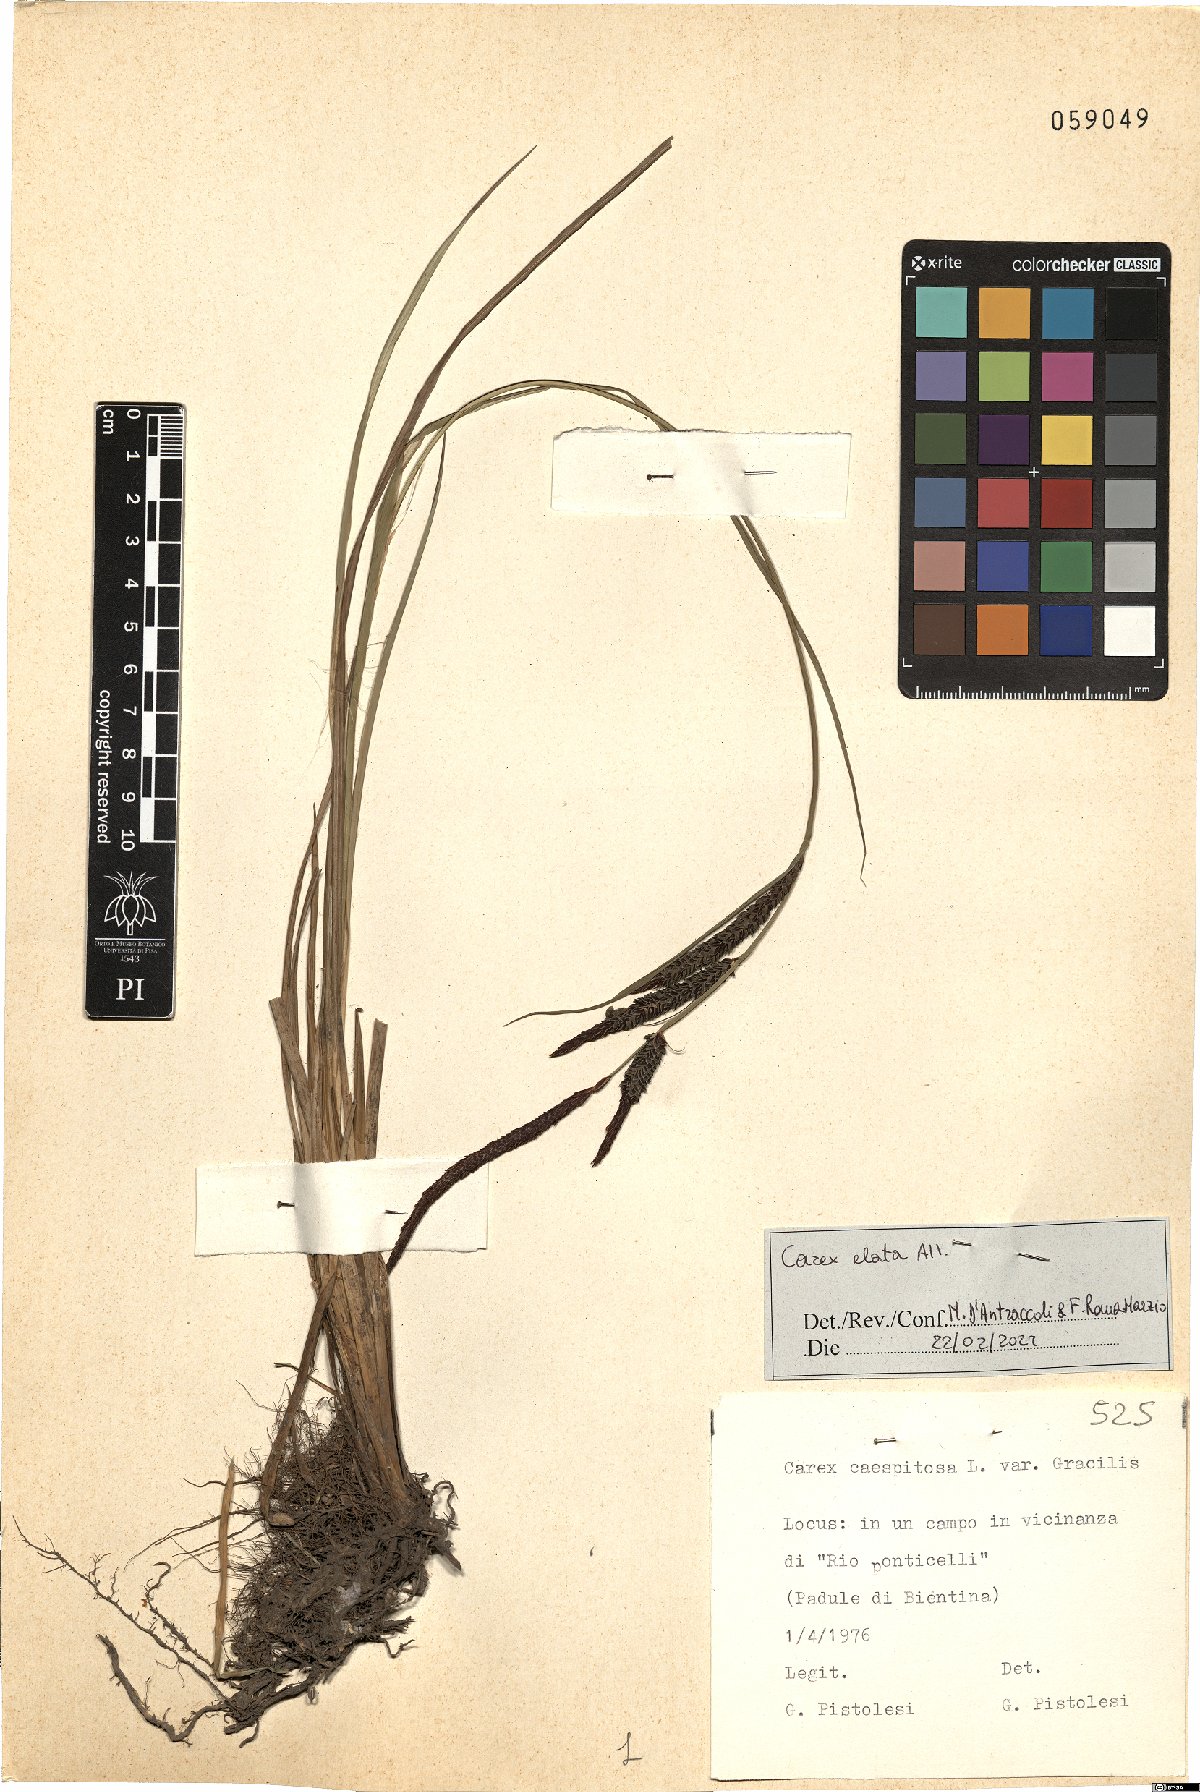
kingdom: Plantae
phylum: Tracheophyta
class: Liliopsida
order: Poales
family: Cyperaceae
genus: Carex
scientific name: Carex elata
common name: Tufted sedge
